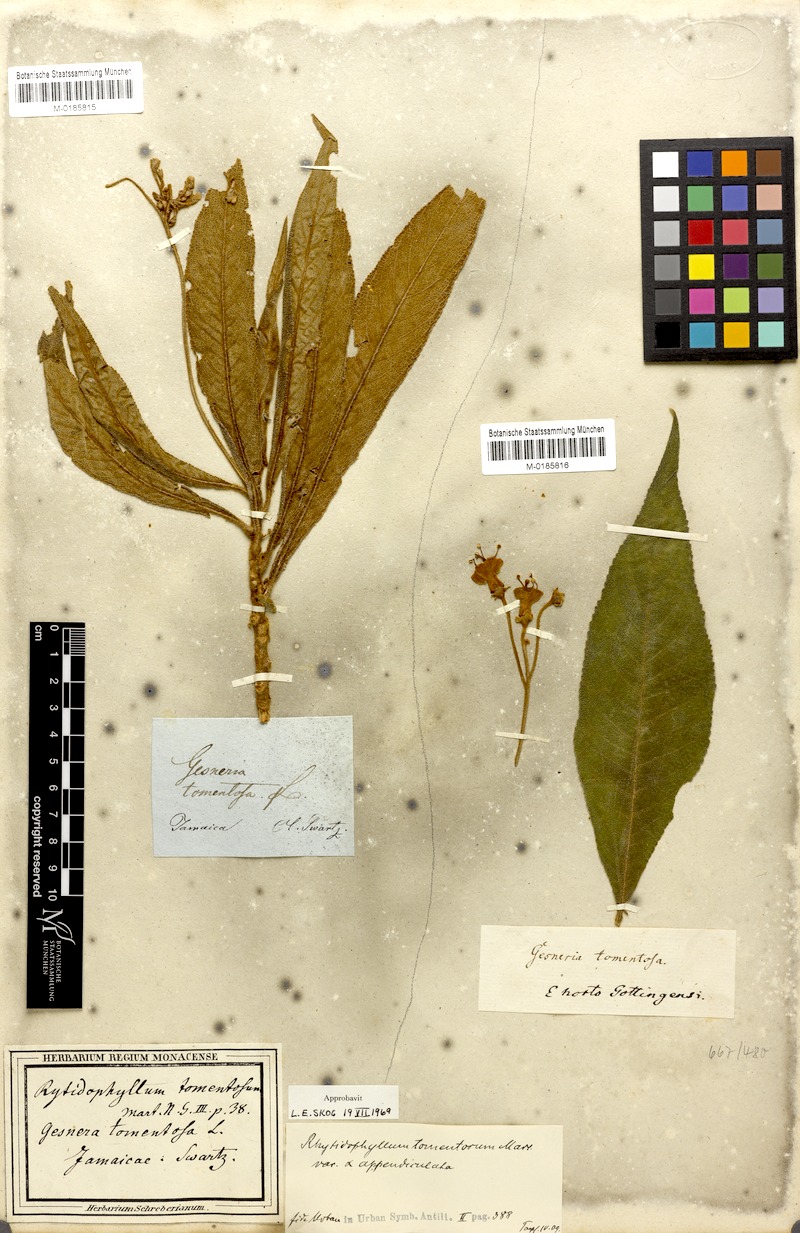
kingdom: Plantae
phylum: Tracheophyta
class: Magnoliopsida
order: Lamiales
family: Gesneriaceae
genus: Rhytidophyllum
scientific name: Rhytidophyllum tomentosum
